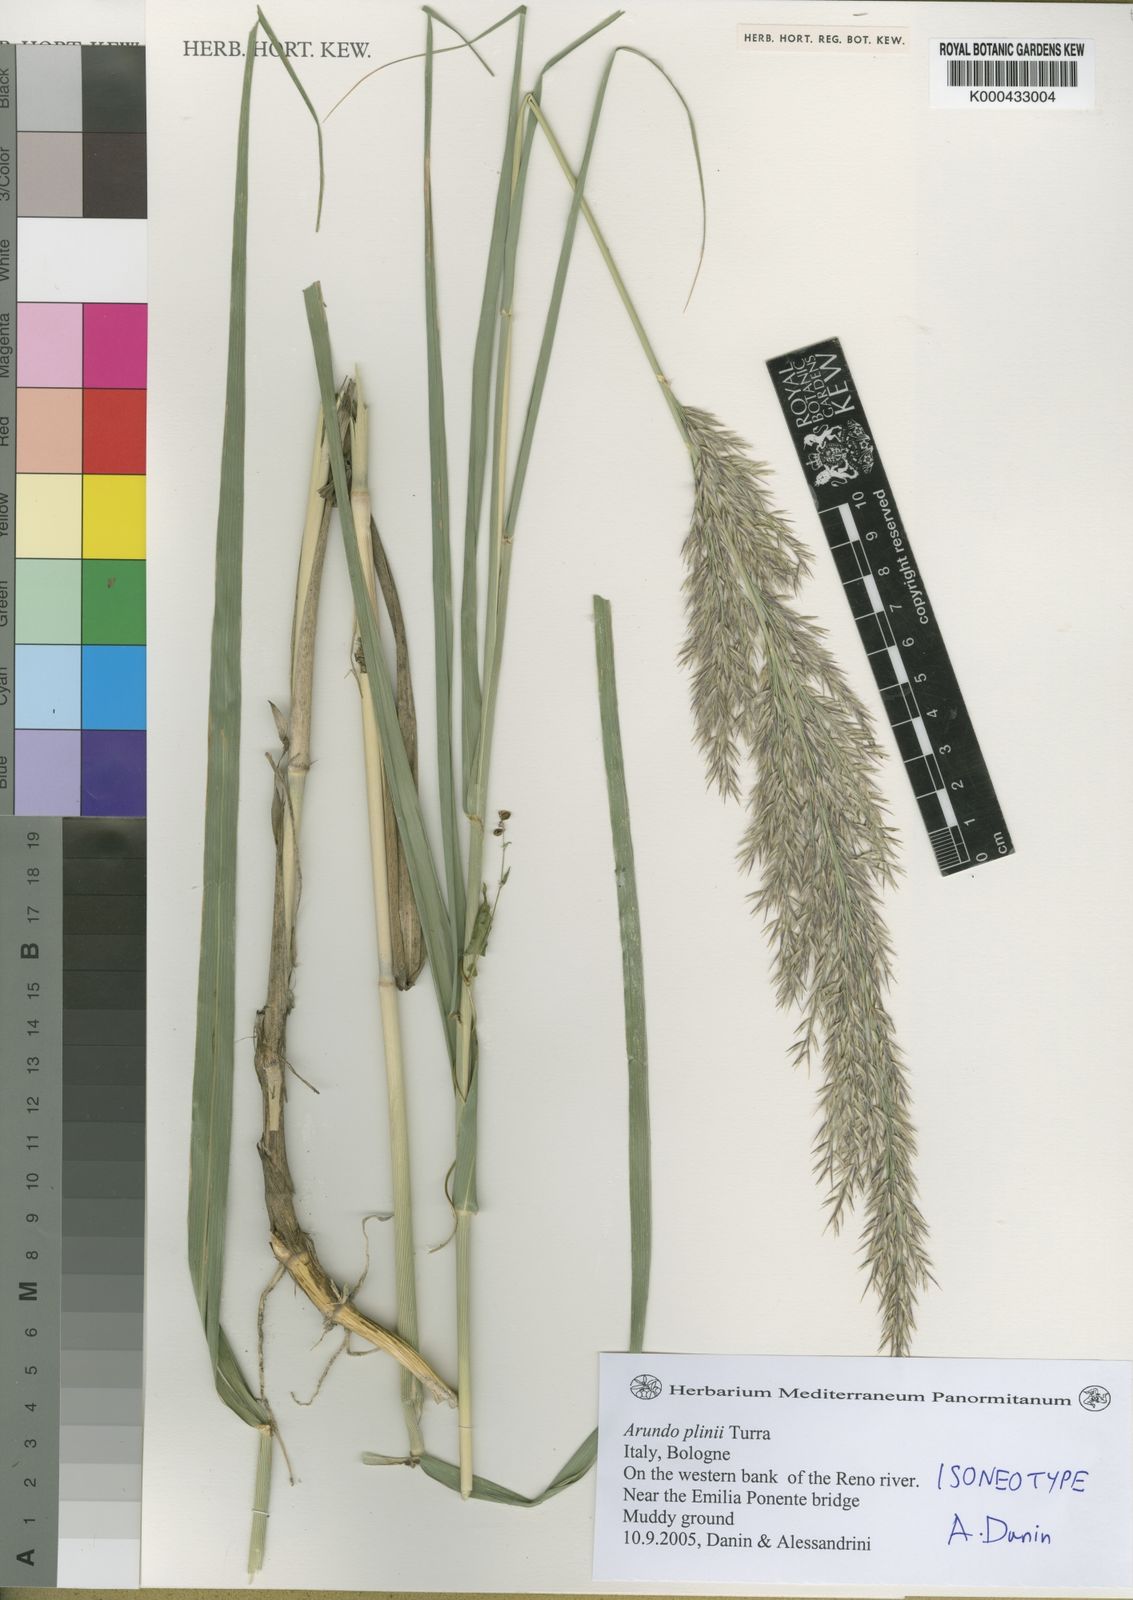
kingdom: Plantae
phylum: Tracheophyta
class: Liliopsida
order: Poales
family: Poaceae
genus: Arundo
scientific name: Arundo plinii
